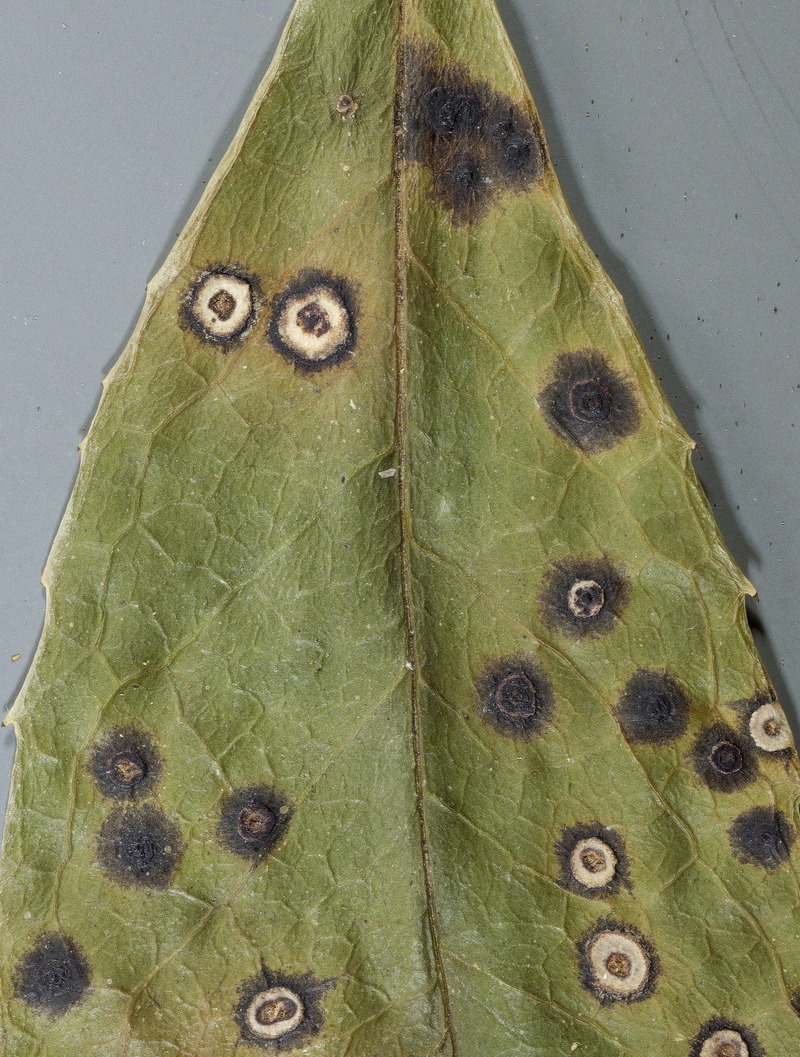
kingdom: Fungi
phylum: Ascomycota
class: Leotiomycetes
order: Rhytismatales
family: Rhytismataceae
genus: Cryptomyces
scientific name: Cryptomyces leopoldinus
